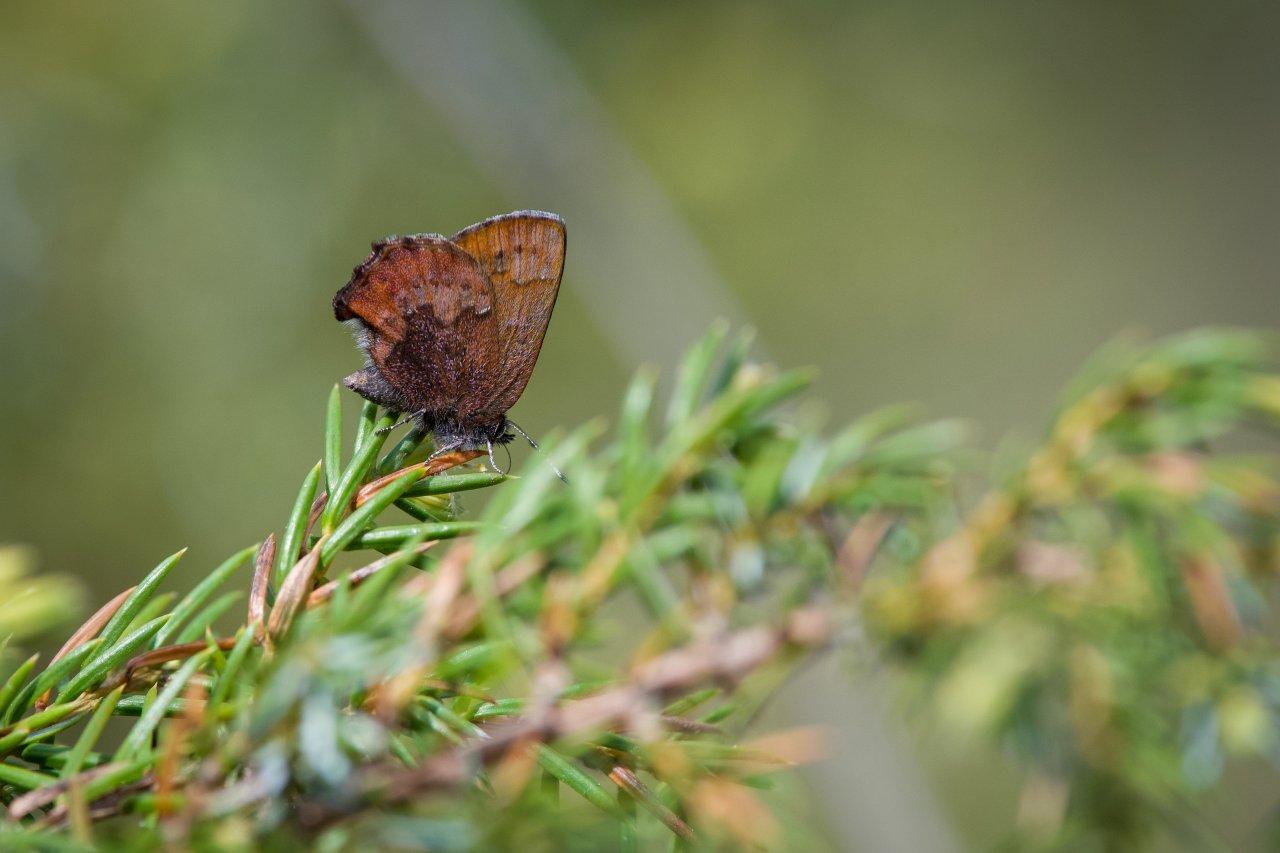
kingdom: Animalia
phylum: Arthropoda
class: Insecta
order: Lepidoptera
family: Lycaenidae
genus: Incisalia
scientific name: Incisalia irioides
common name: Brown Elfin
